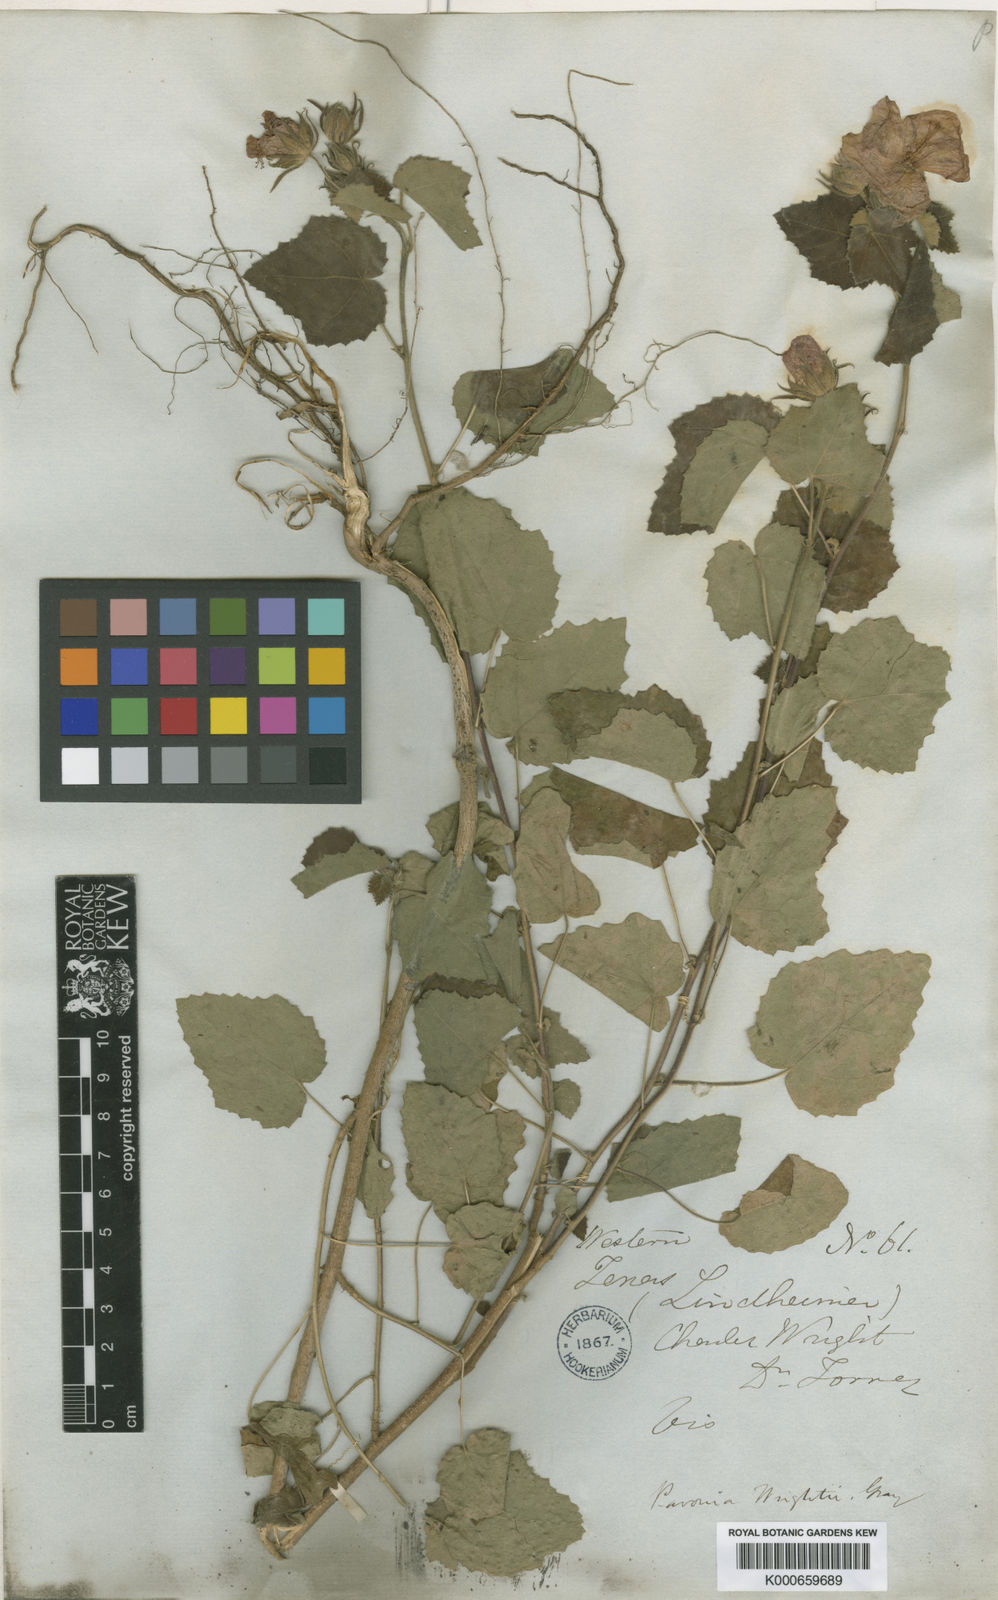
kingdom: Plantae
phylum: Tracheophyta
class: Magnoliopsida
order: Malvales
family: Malvaceae
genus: Pavonia
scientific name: Pavonia lasiopetala
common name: Texas swamp-mallow
